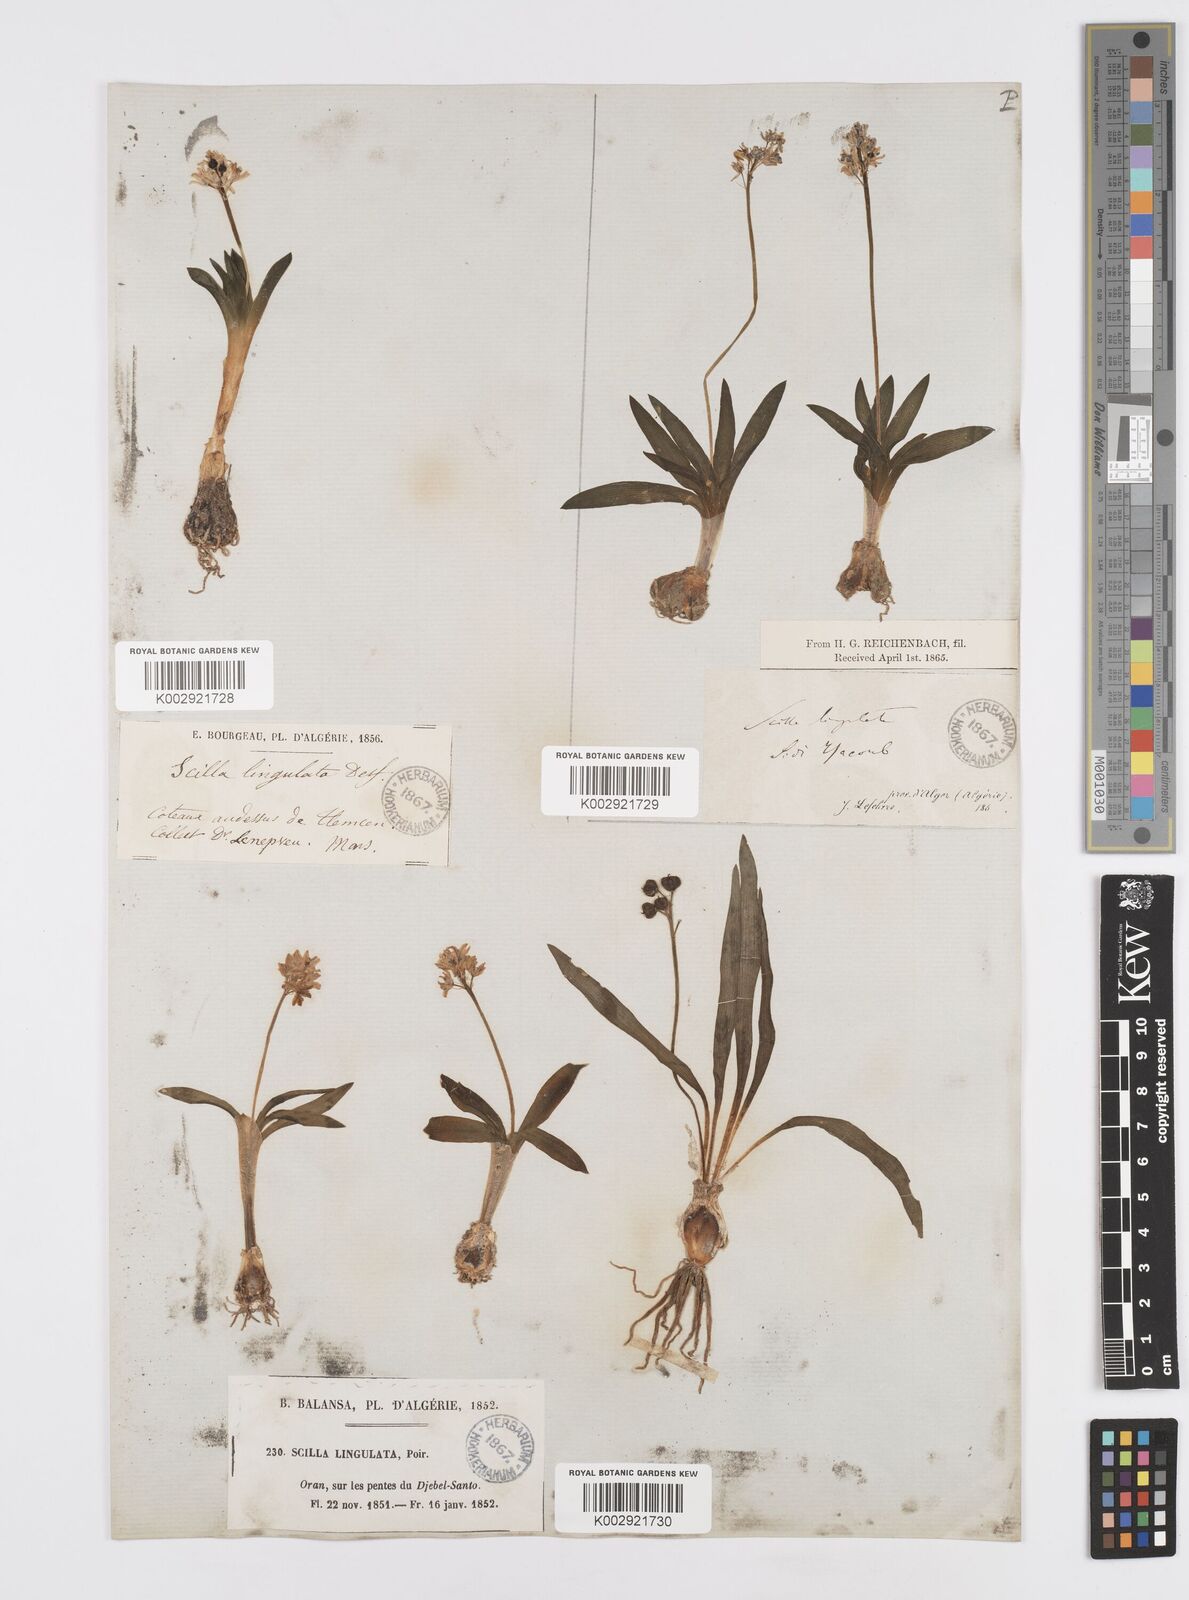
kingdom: Plantae
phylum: Tracheophyta
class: Liliopsida
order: Asparagales
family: Asparagaceae
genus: Hyacinthoides
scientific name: Hyacinthoides lingulata
